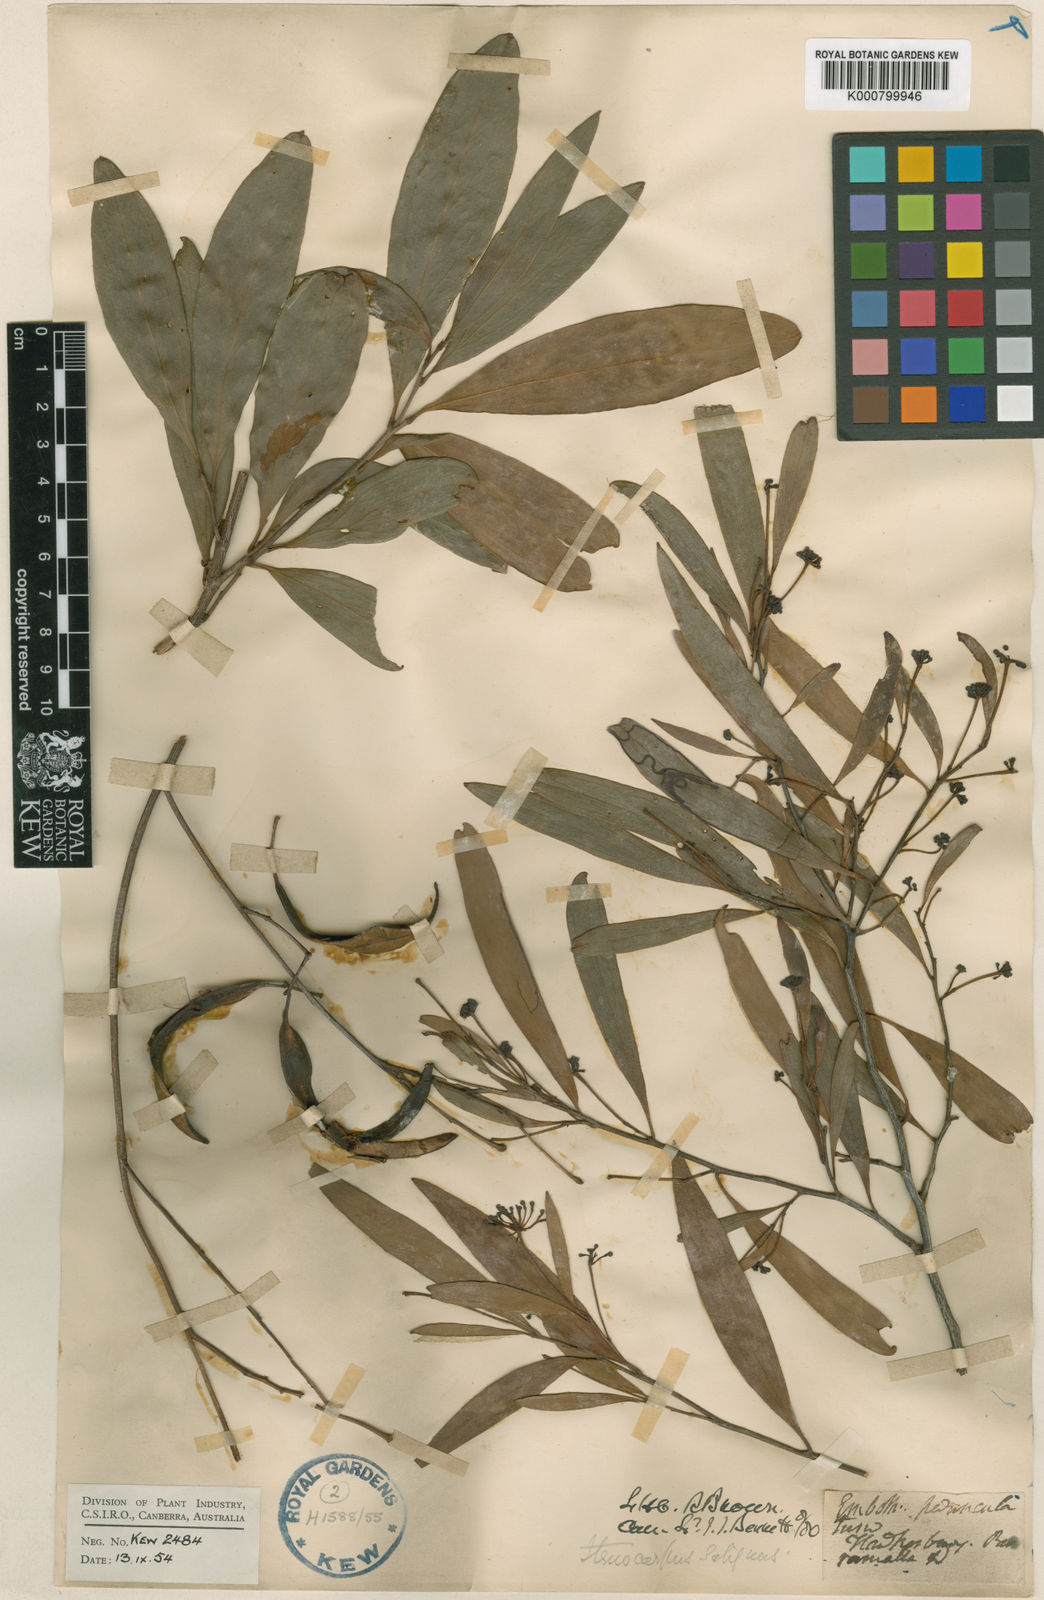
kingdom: Plantae
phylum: Tracheophyta
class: Magnoliopsida
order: Proteales
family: Proteaceae
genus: Stenocarpus
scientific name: Stenocarpus salignus
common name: Red silky-oak
